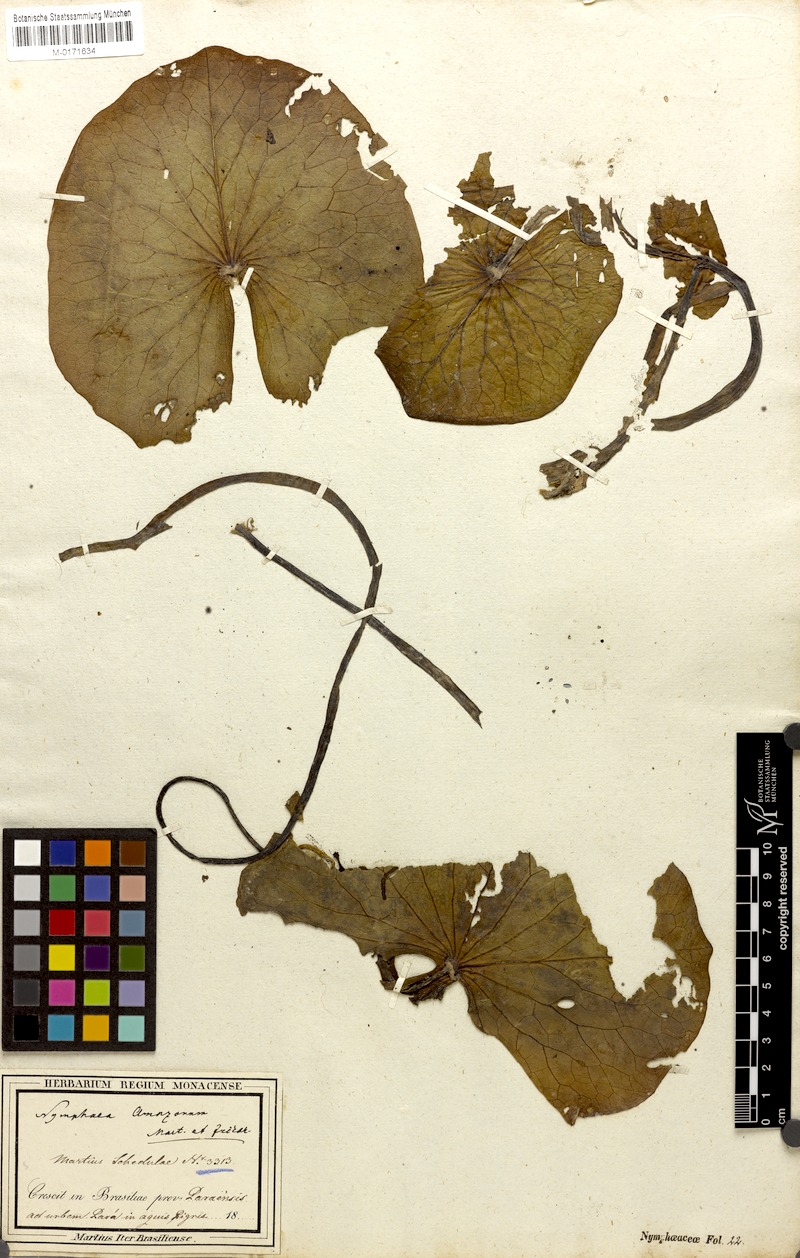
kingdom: Plantae
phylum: Tracheophyta
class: Magnoliopsida
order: Nymphaeales
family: Nymphaeaceae
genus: Nymphaea
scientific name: Nymphaea amazonum
